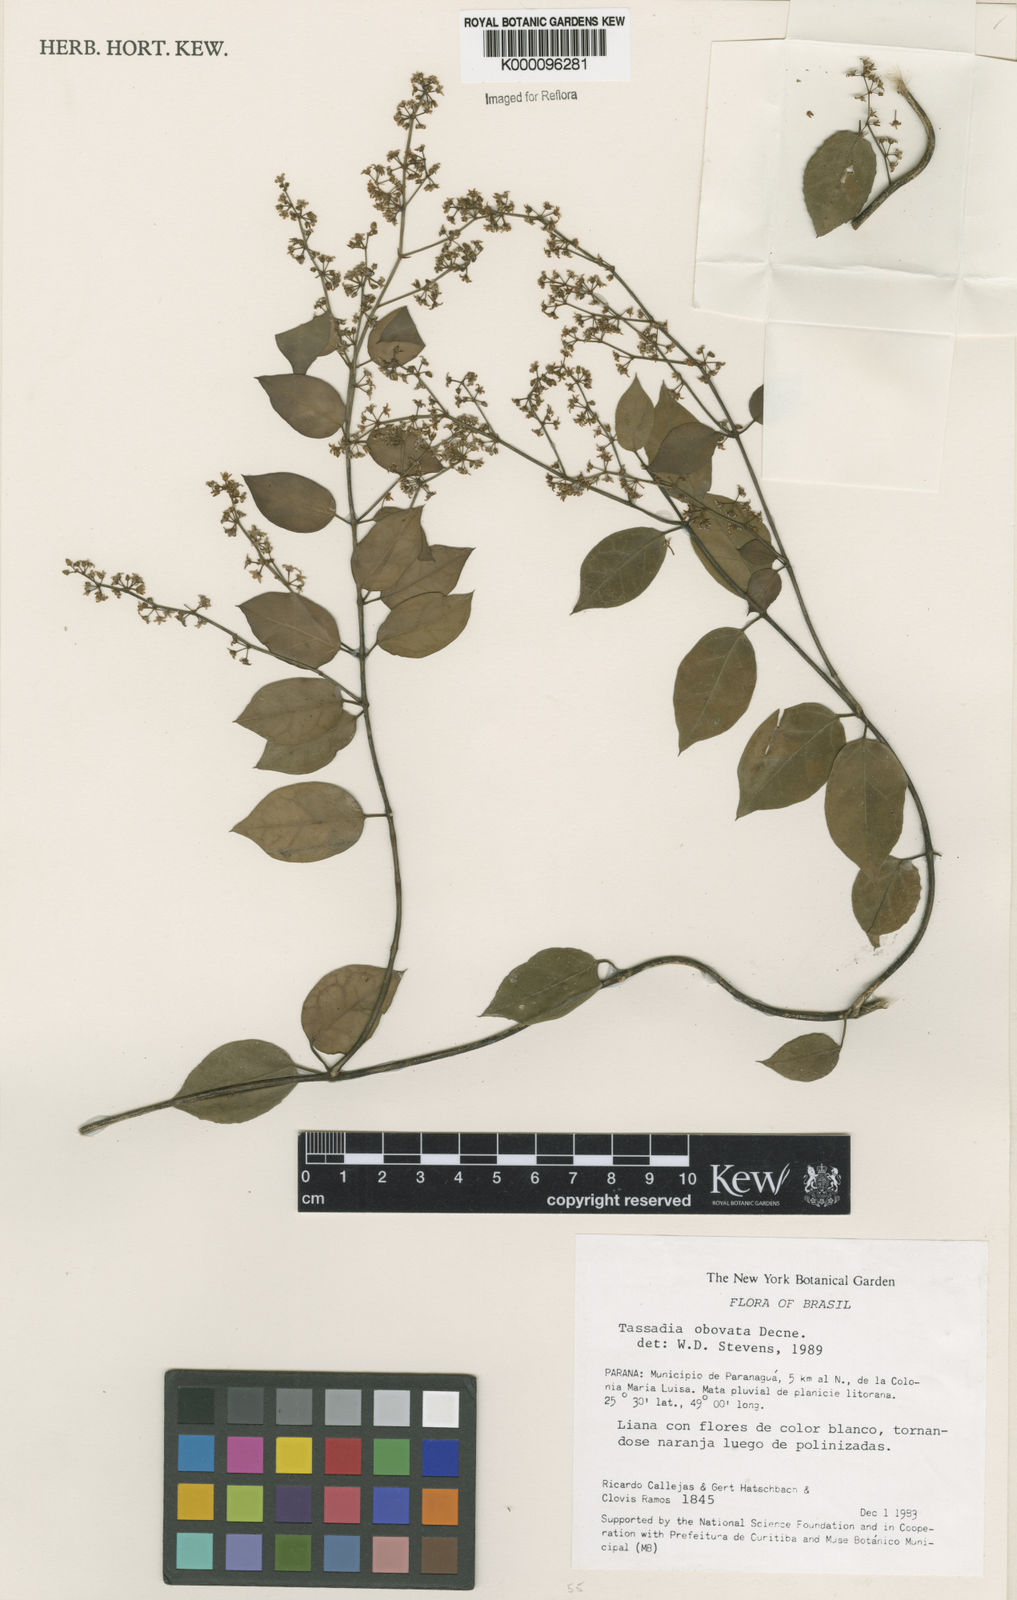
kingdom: Plantae
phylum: Tracheophyta
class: Magnoliopsida
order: Gentianales
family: Apocynaceae
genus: Tassadia
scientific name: Tassadia obovata
